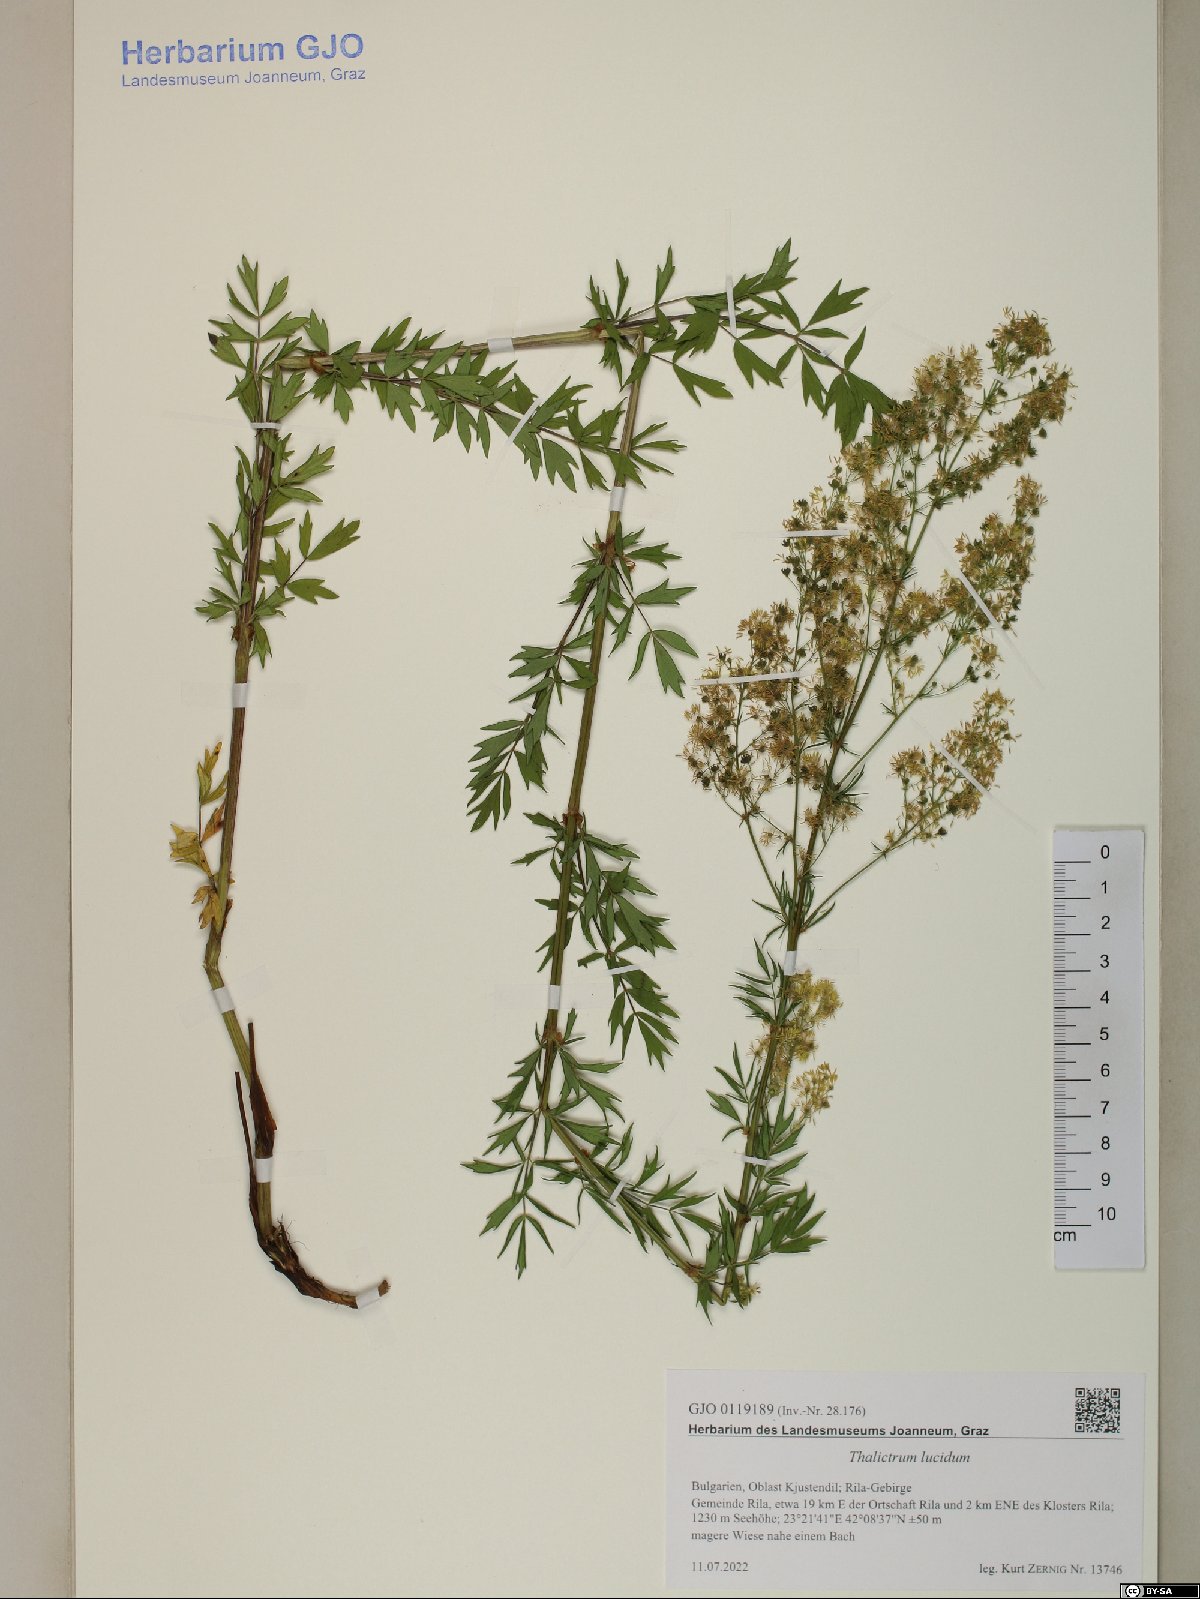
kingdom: Plantae
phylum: Tracheophyta
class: Magnoliopsida
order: Ranunculales
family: Ranunculaceae
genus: Thalictrum
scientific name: Thalictrum lucidum
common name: Shining meadow-rue
